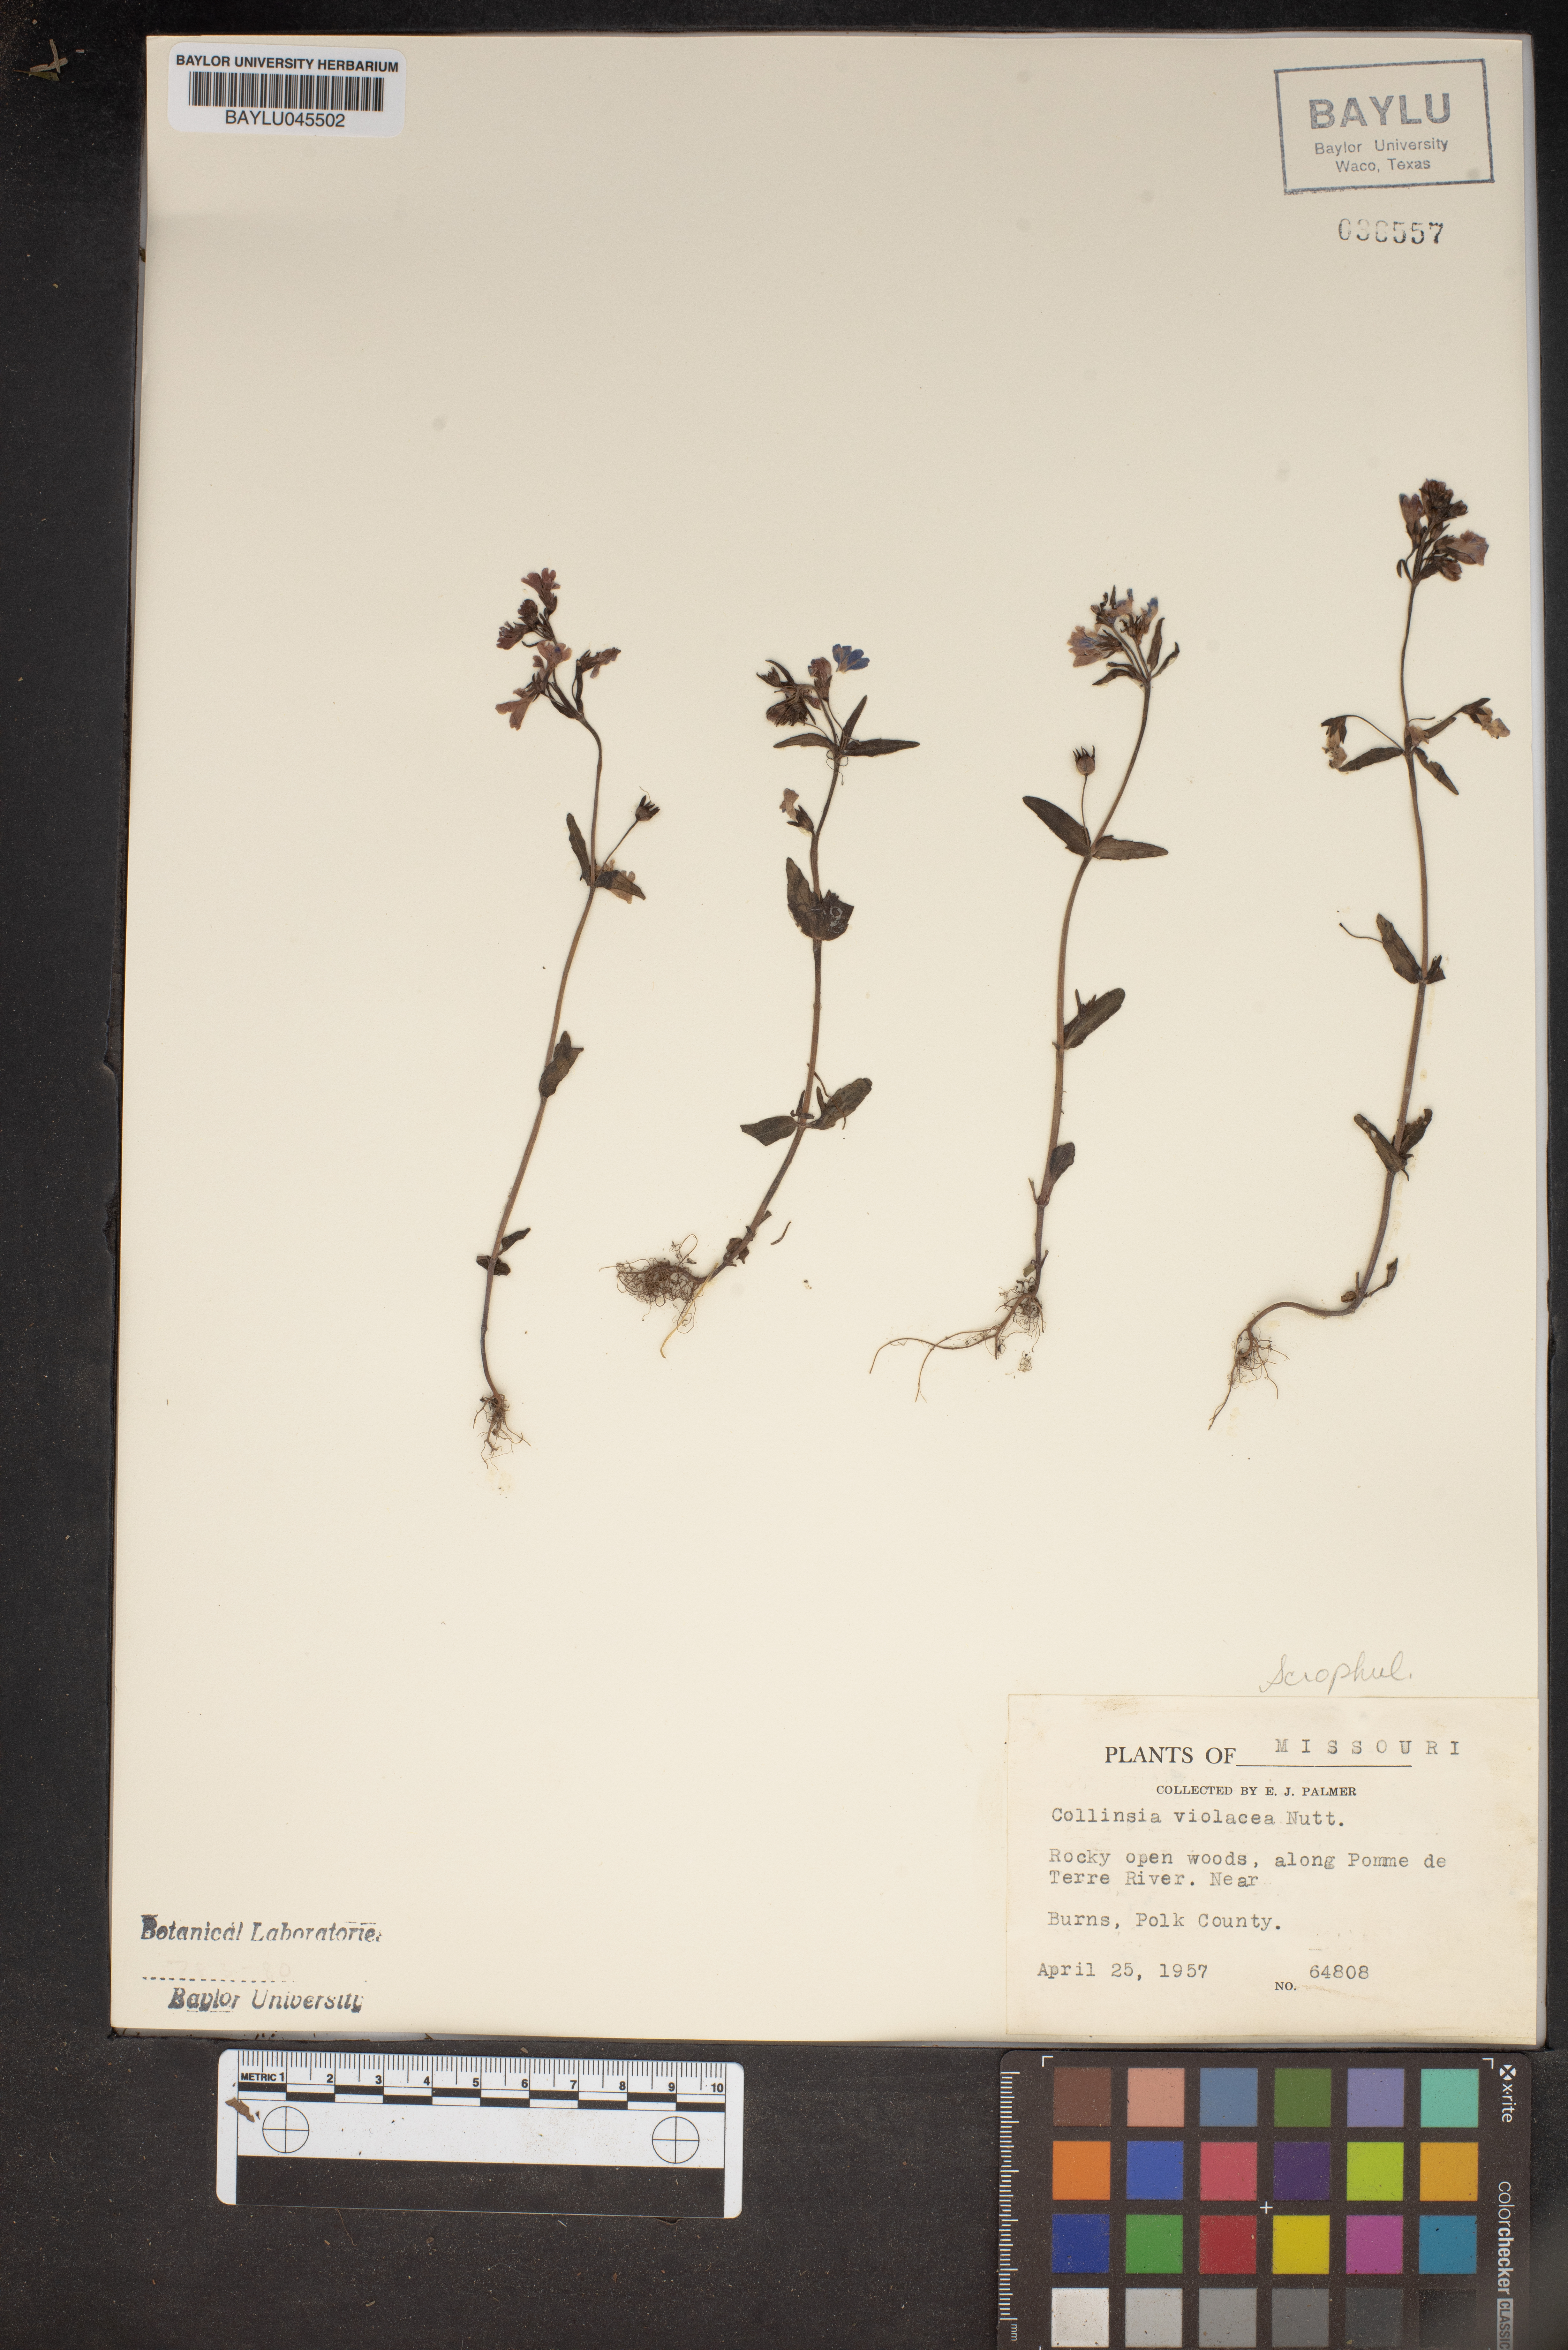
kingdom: Plantae
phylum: Tracheophyta
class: Magnoliopsida
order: Lamiales
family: Plantaginaceae
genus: Collinsia
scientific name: Collinsia violacea
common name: Violet collinsia
